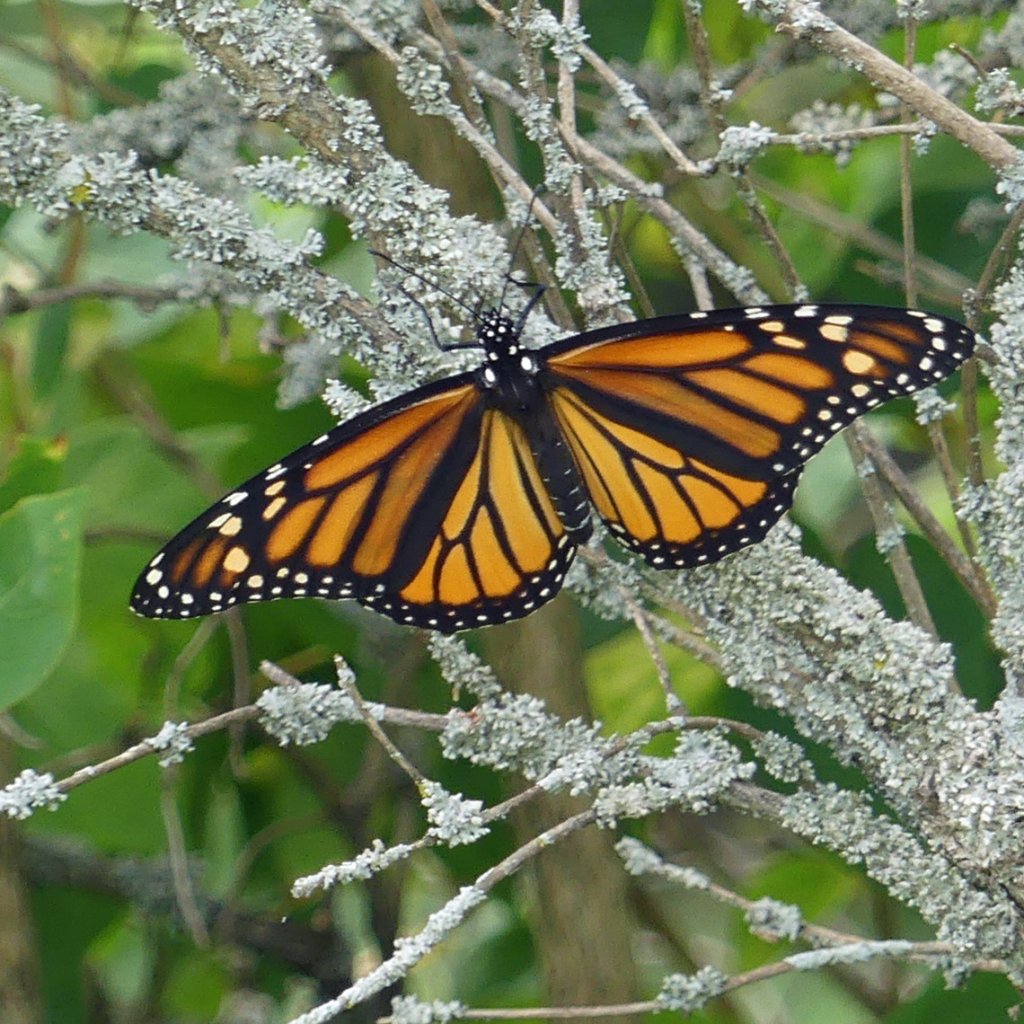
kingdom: Animalia
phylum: Arthropoda
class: Insecta
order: Lepidoptera
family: Nymphalidae
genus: Danaus
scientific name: Danaus plexippus
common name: Monarch
